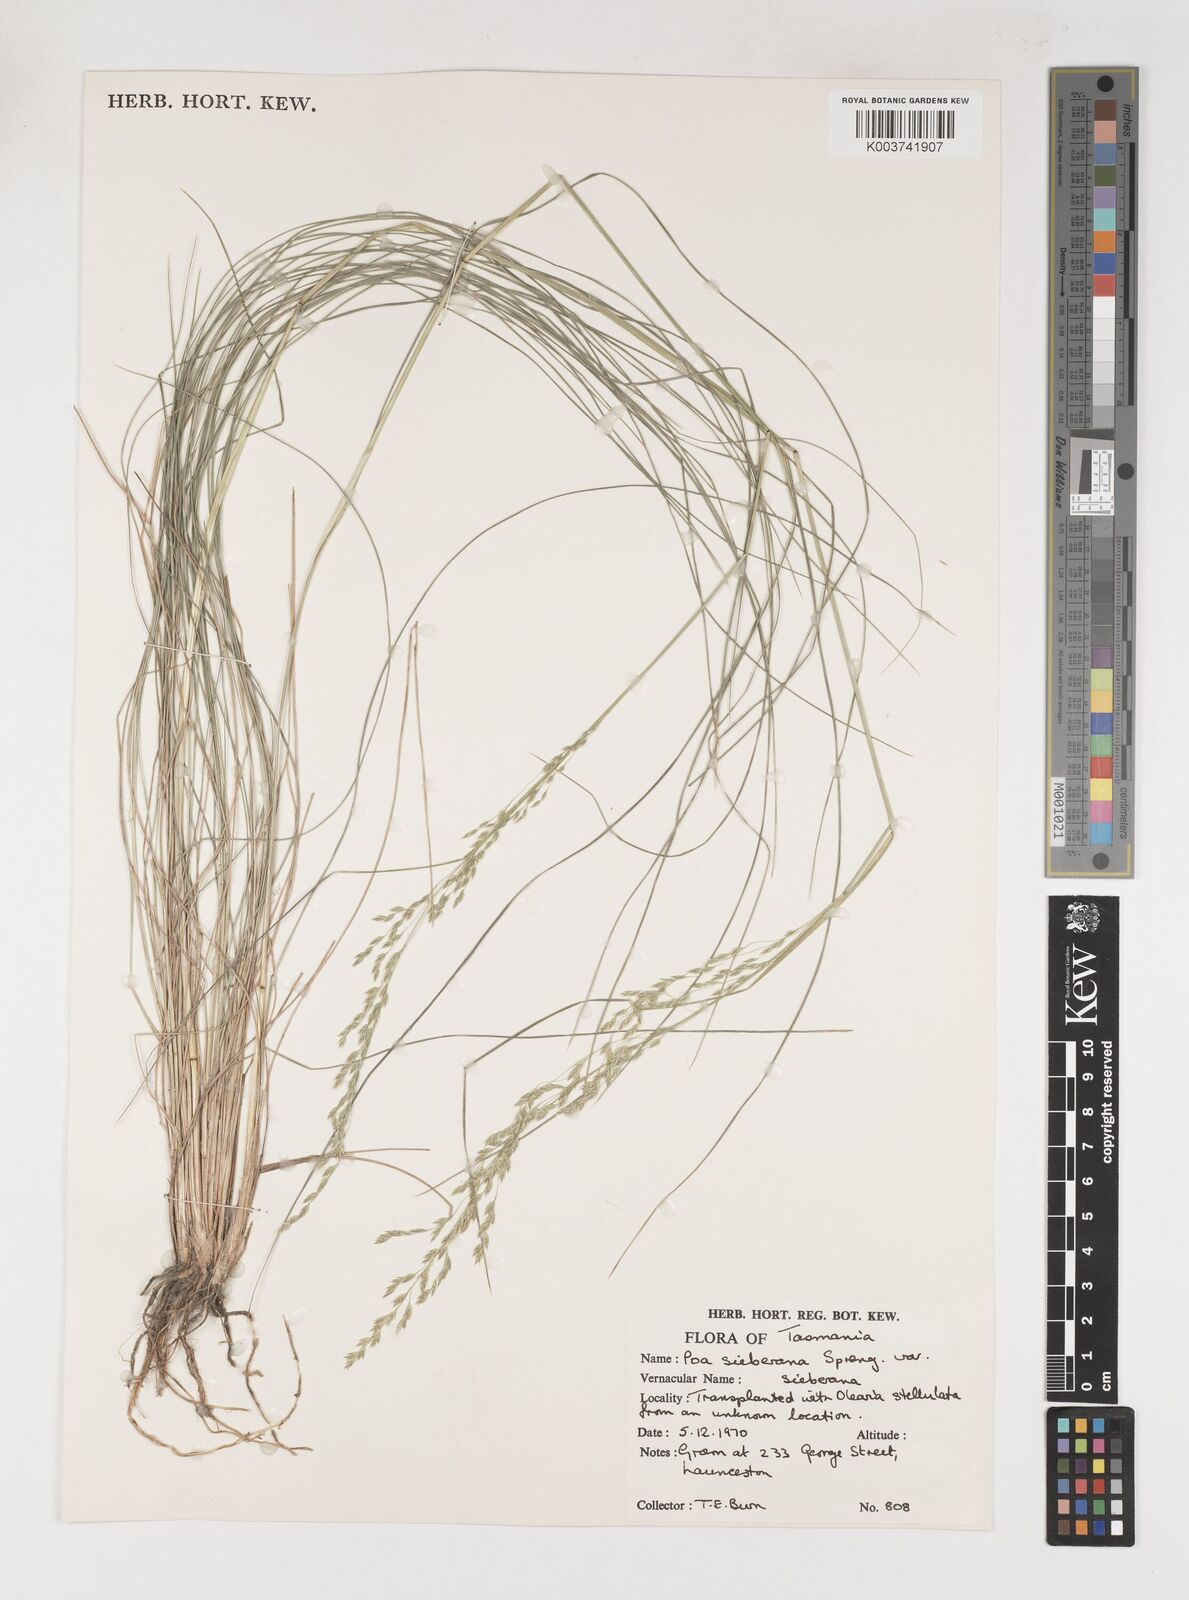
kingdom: Plantae
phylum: Tracheophyta
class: Liliopsida
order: Poales
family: Poaceae
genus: Poa
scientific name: Poa sieberiana
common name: Tussock poa
